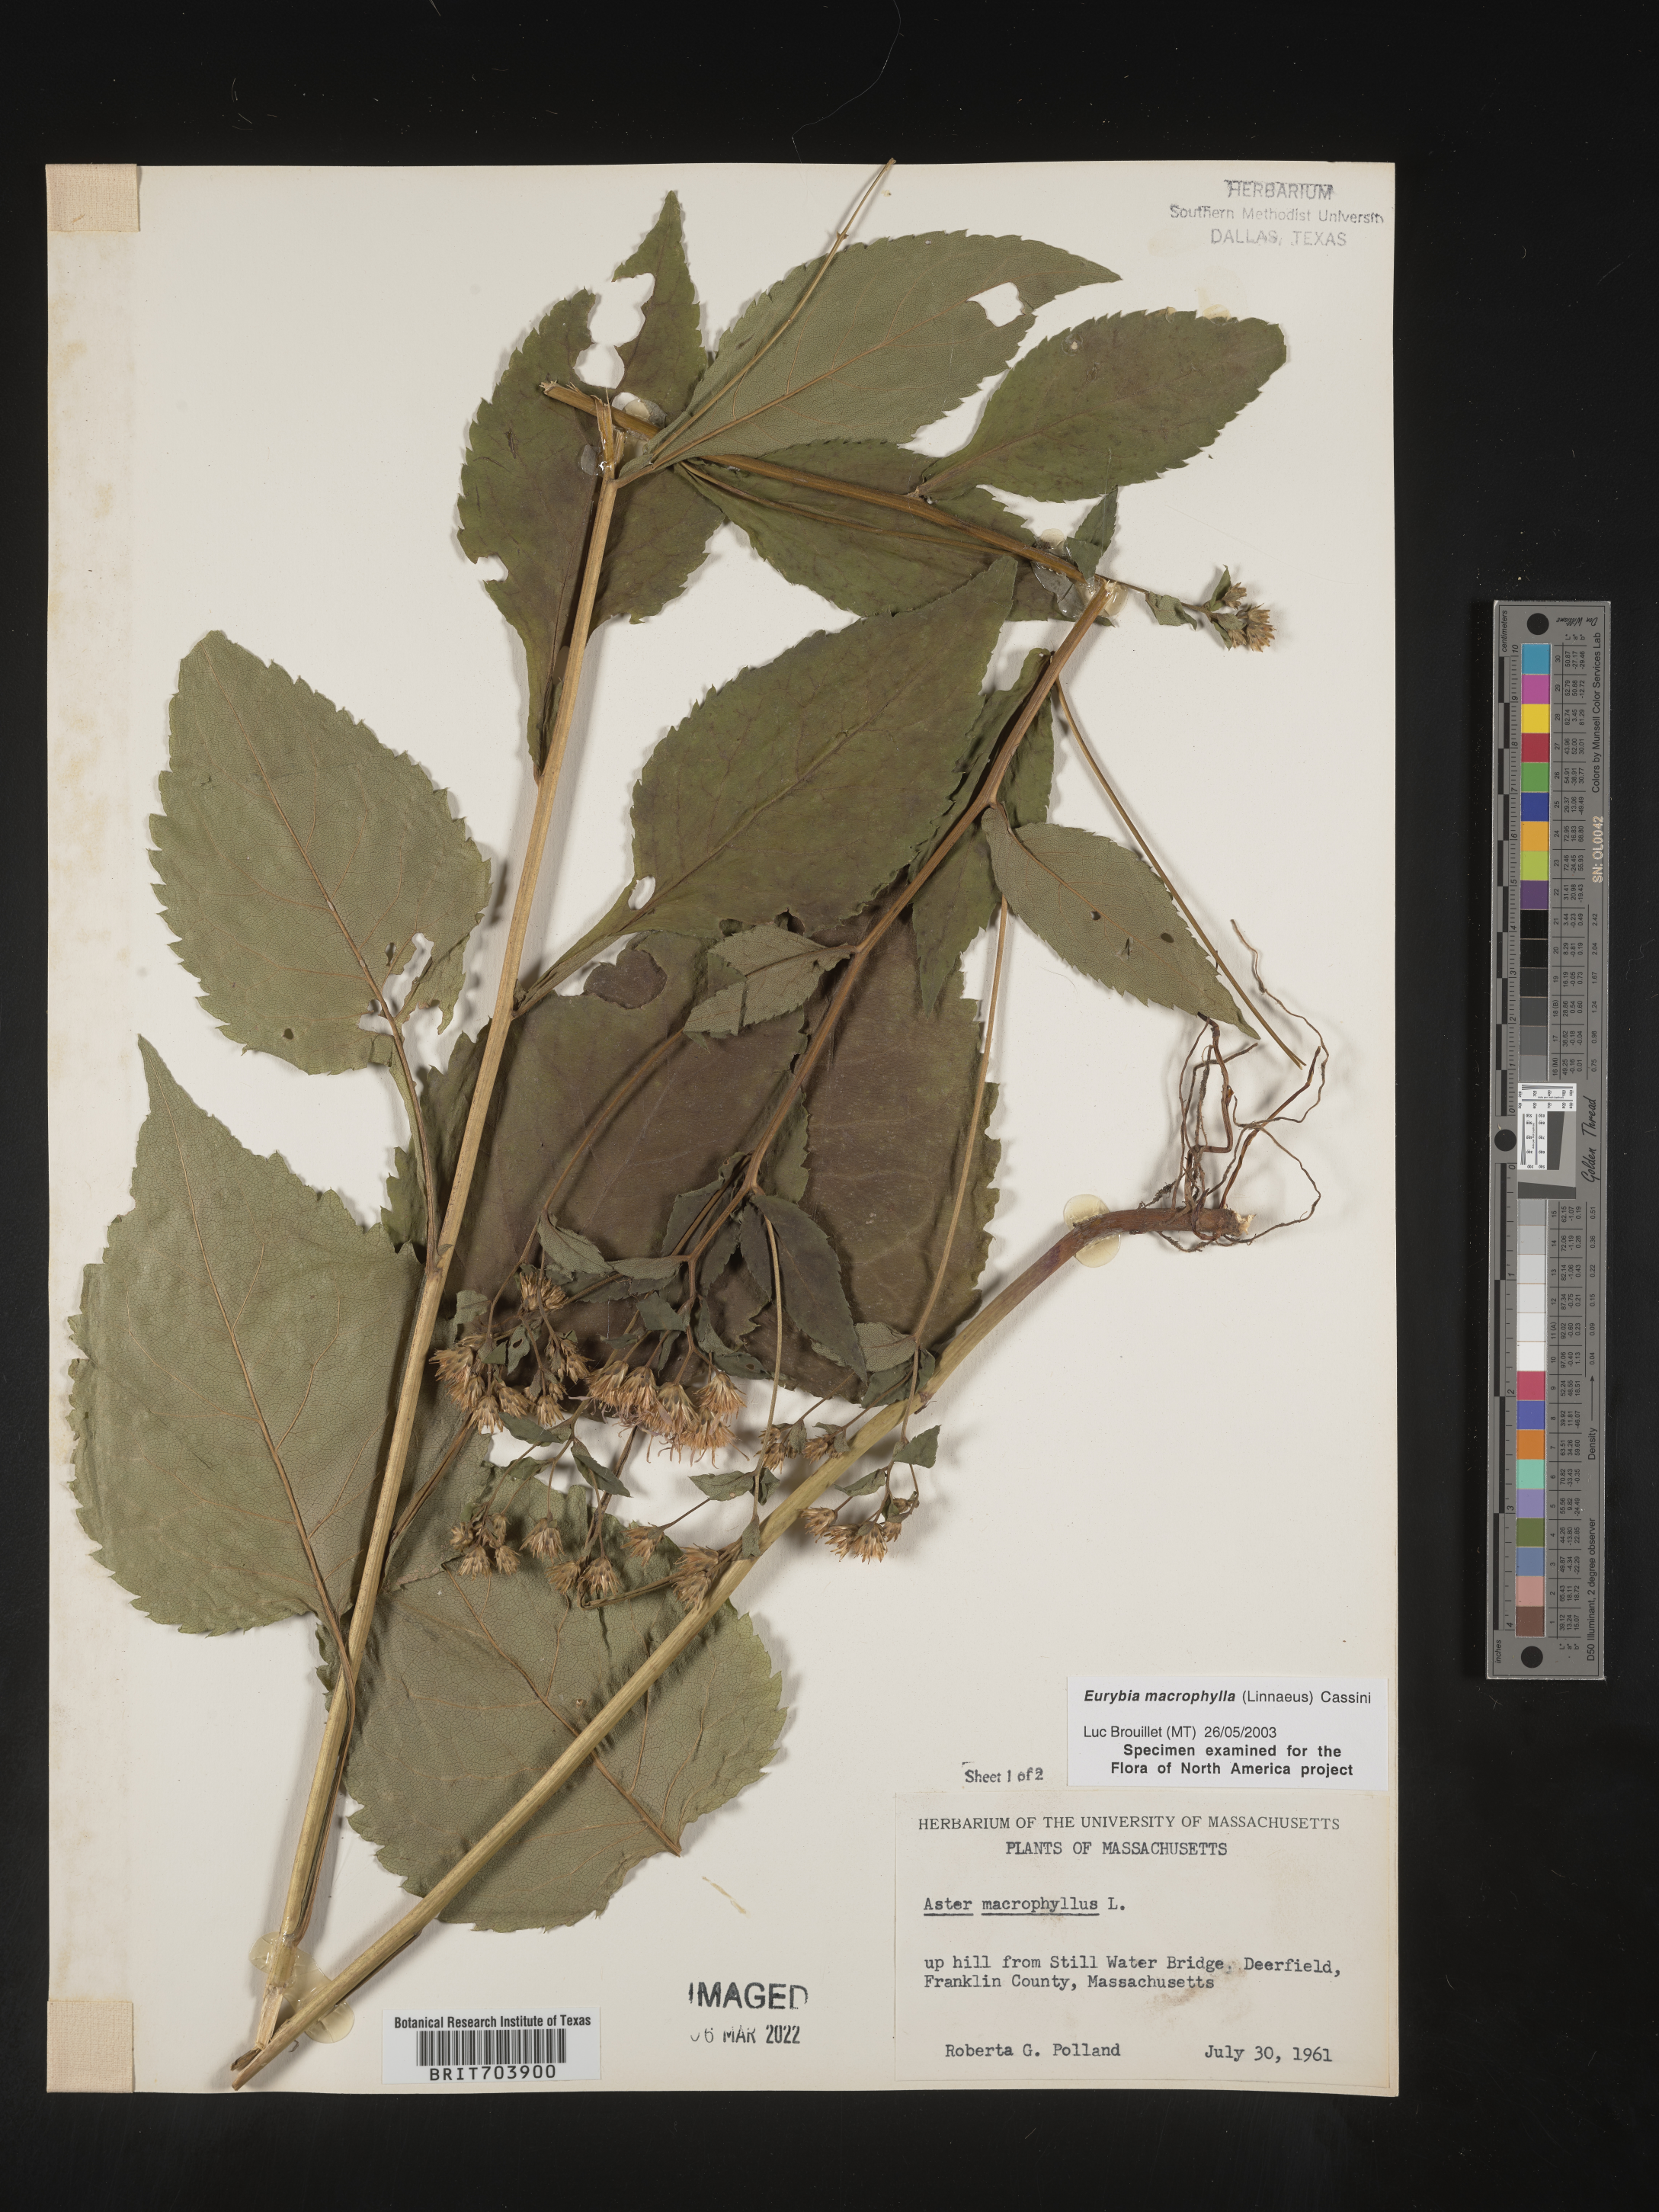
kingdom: Plantae
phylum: Tracheophyta
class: Magnoliopsida
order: Asterales
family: Asteraceae
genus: Eurybia
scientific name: Eurybia macrophylla
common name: Big-leaved aster
